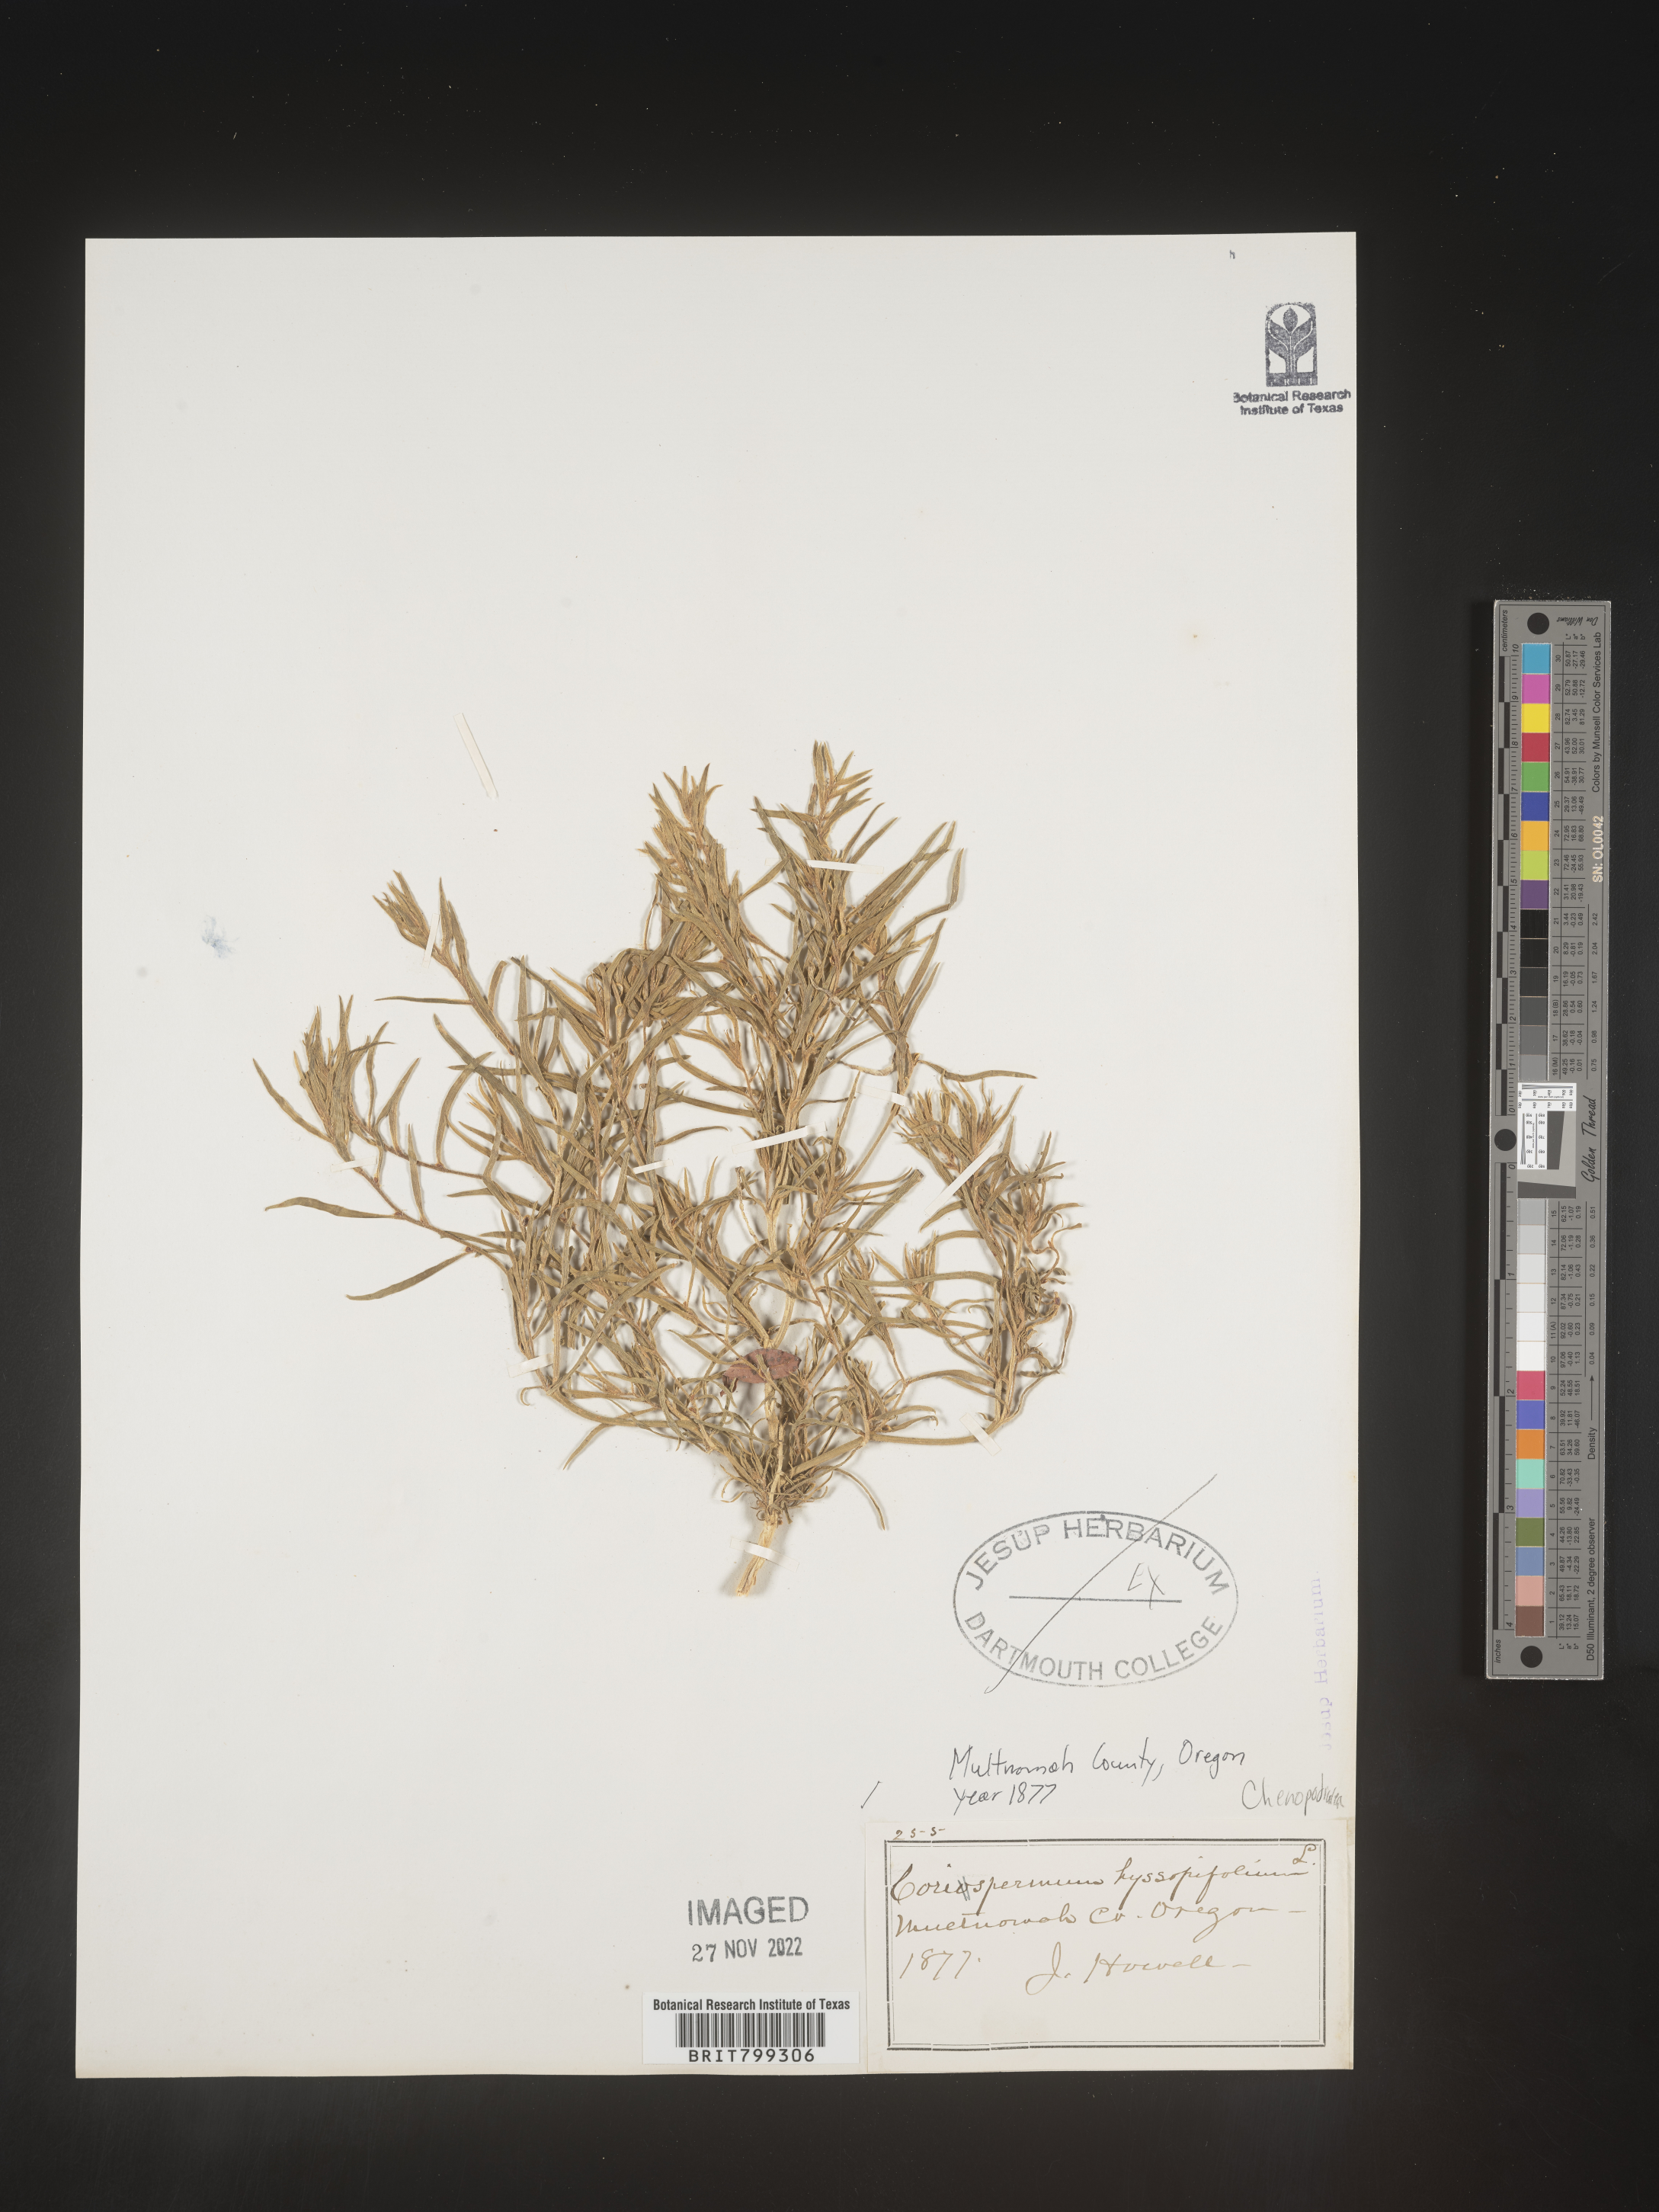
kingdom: Plantae
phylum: Tracheophyta
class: Magnoliopsida
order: Caryophyllales
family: Amaranthaceae
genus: Corispermum
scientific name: Corispermum
